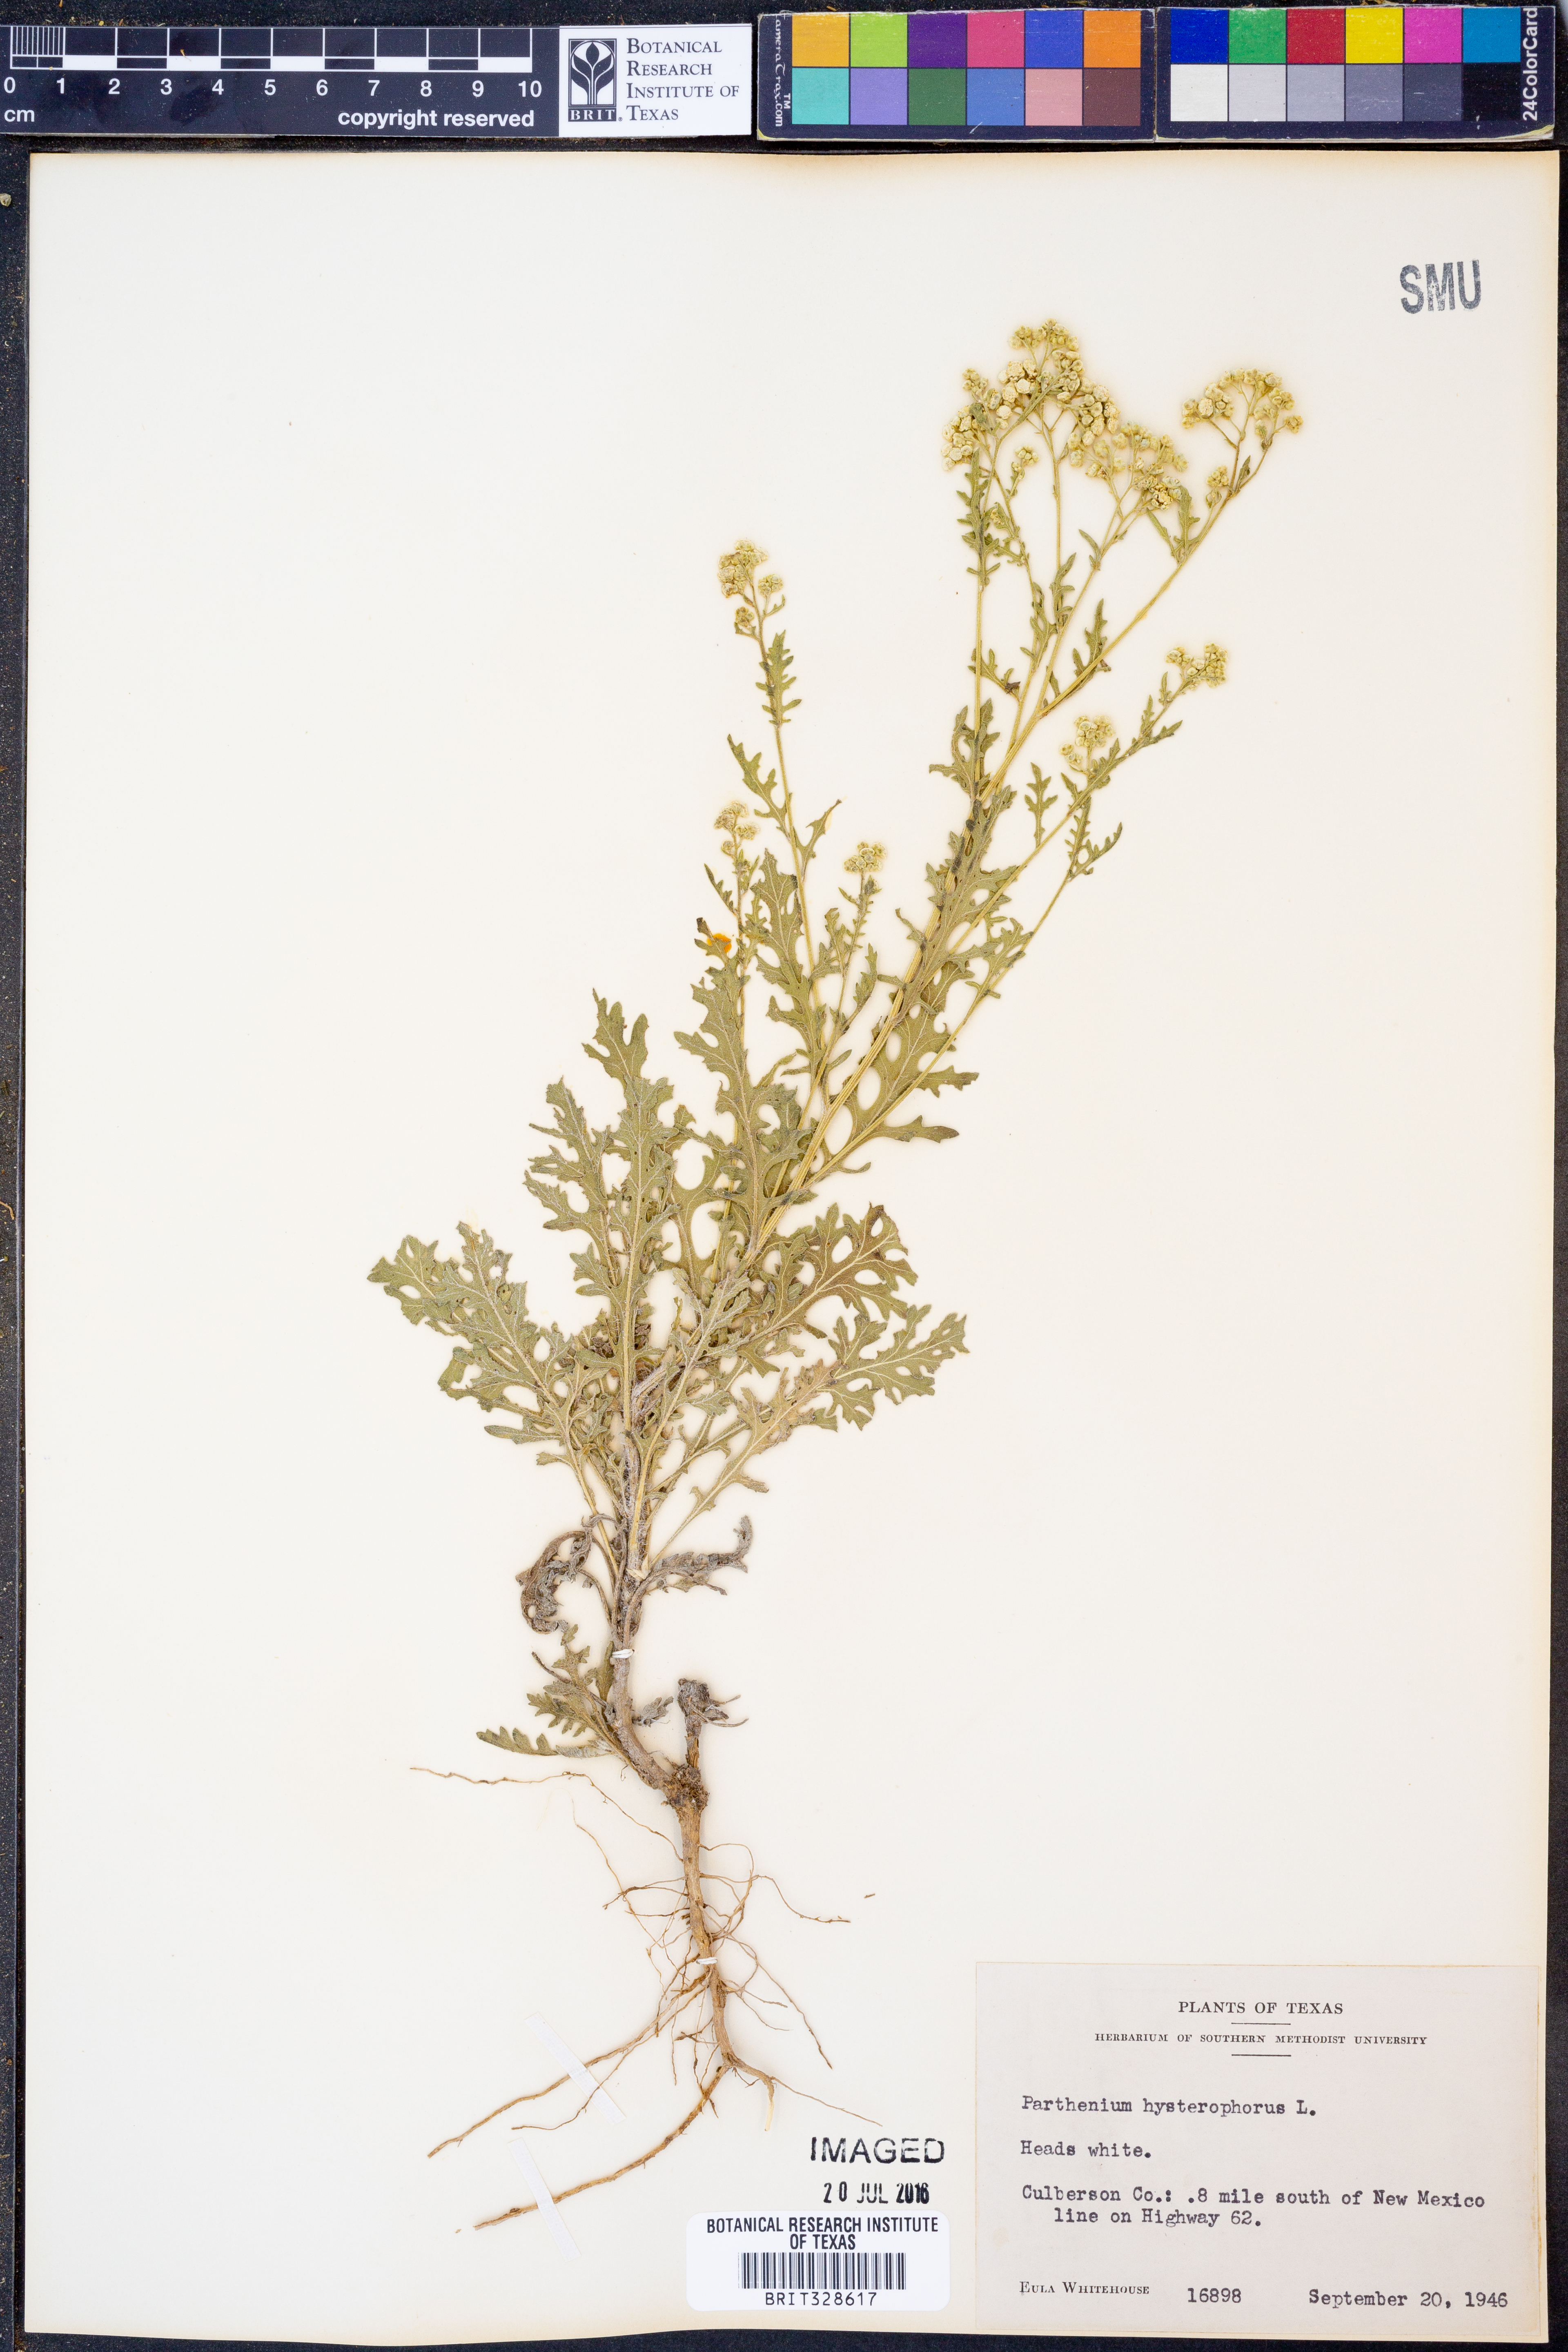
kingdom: Plantae
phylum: Tracheophyta
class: Magnoliopsida
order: Asterales
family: Asteraceae
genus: Parthenium
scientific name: Parthenium hysterophorus
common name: Santa maria feverfew
